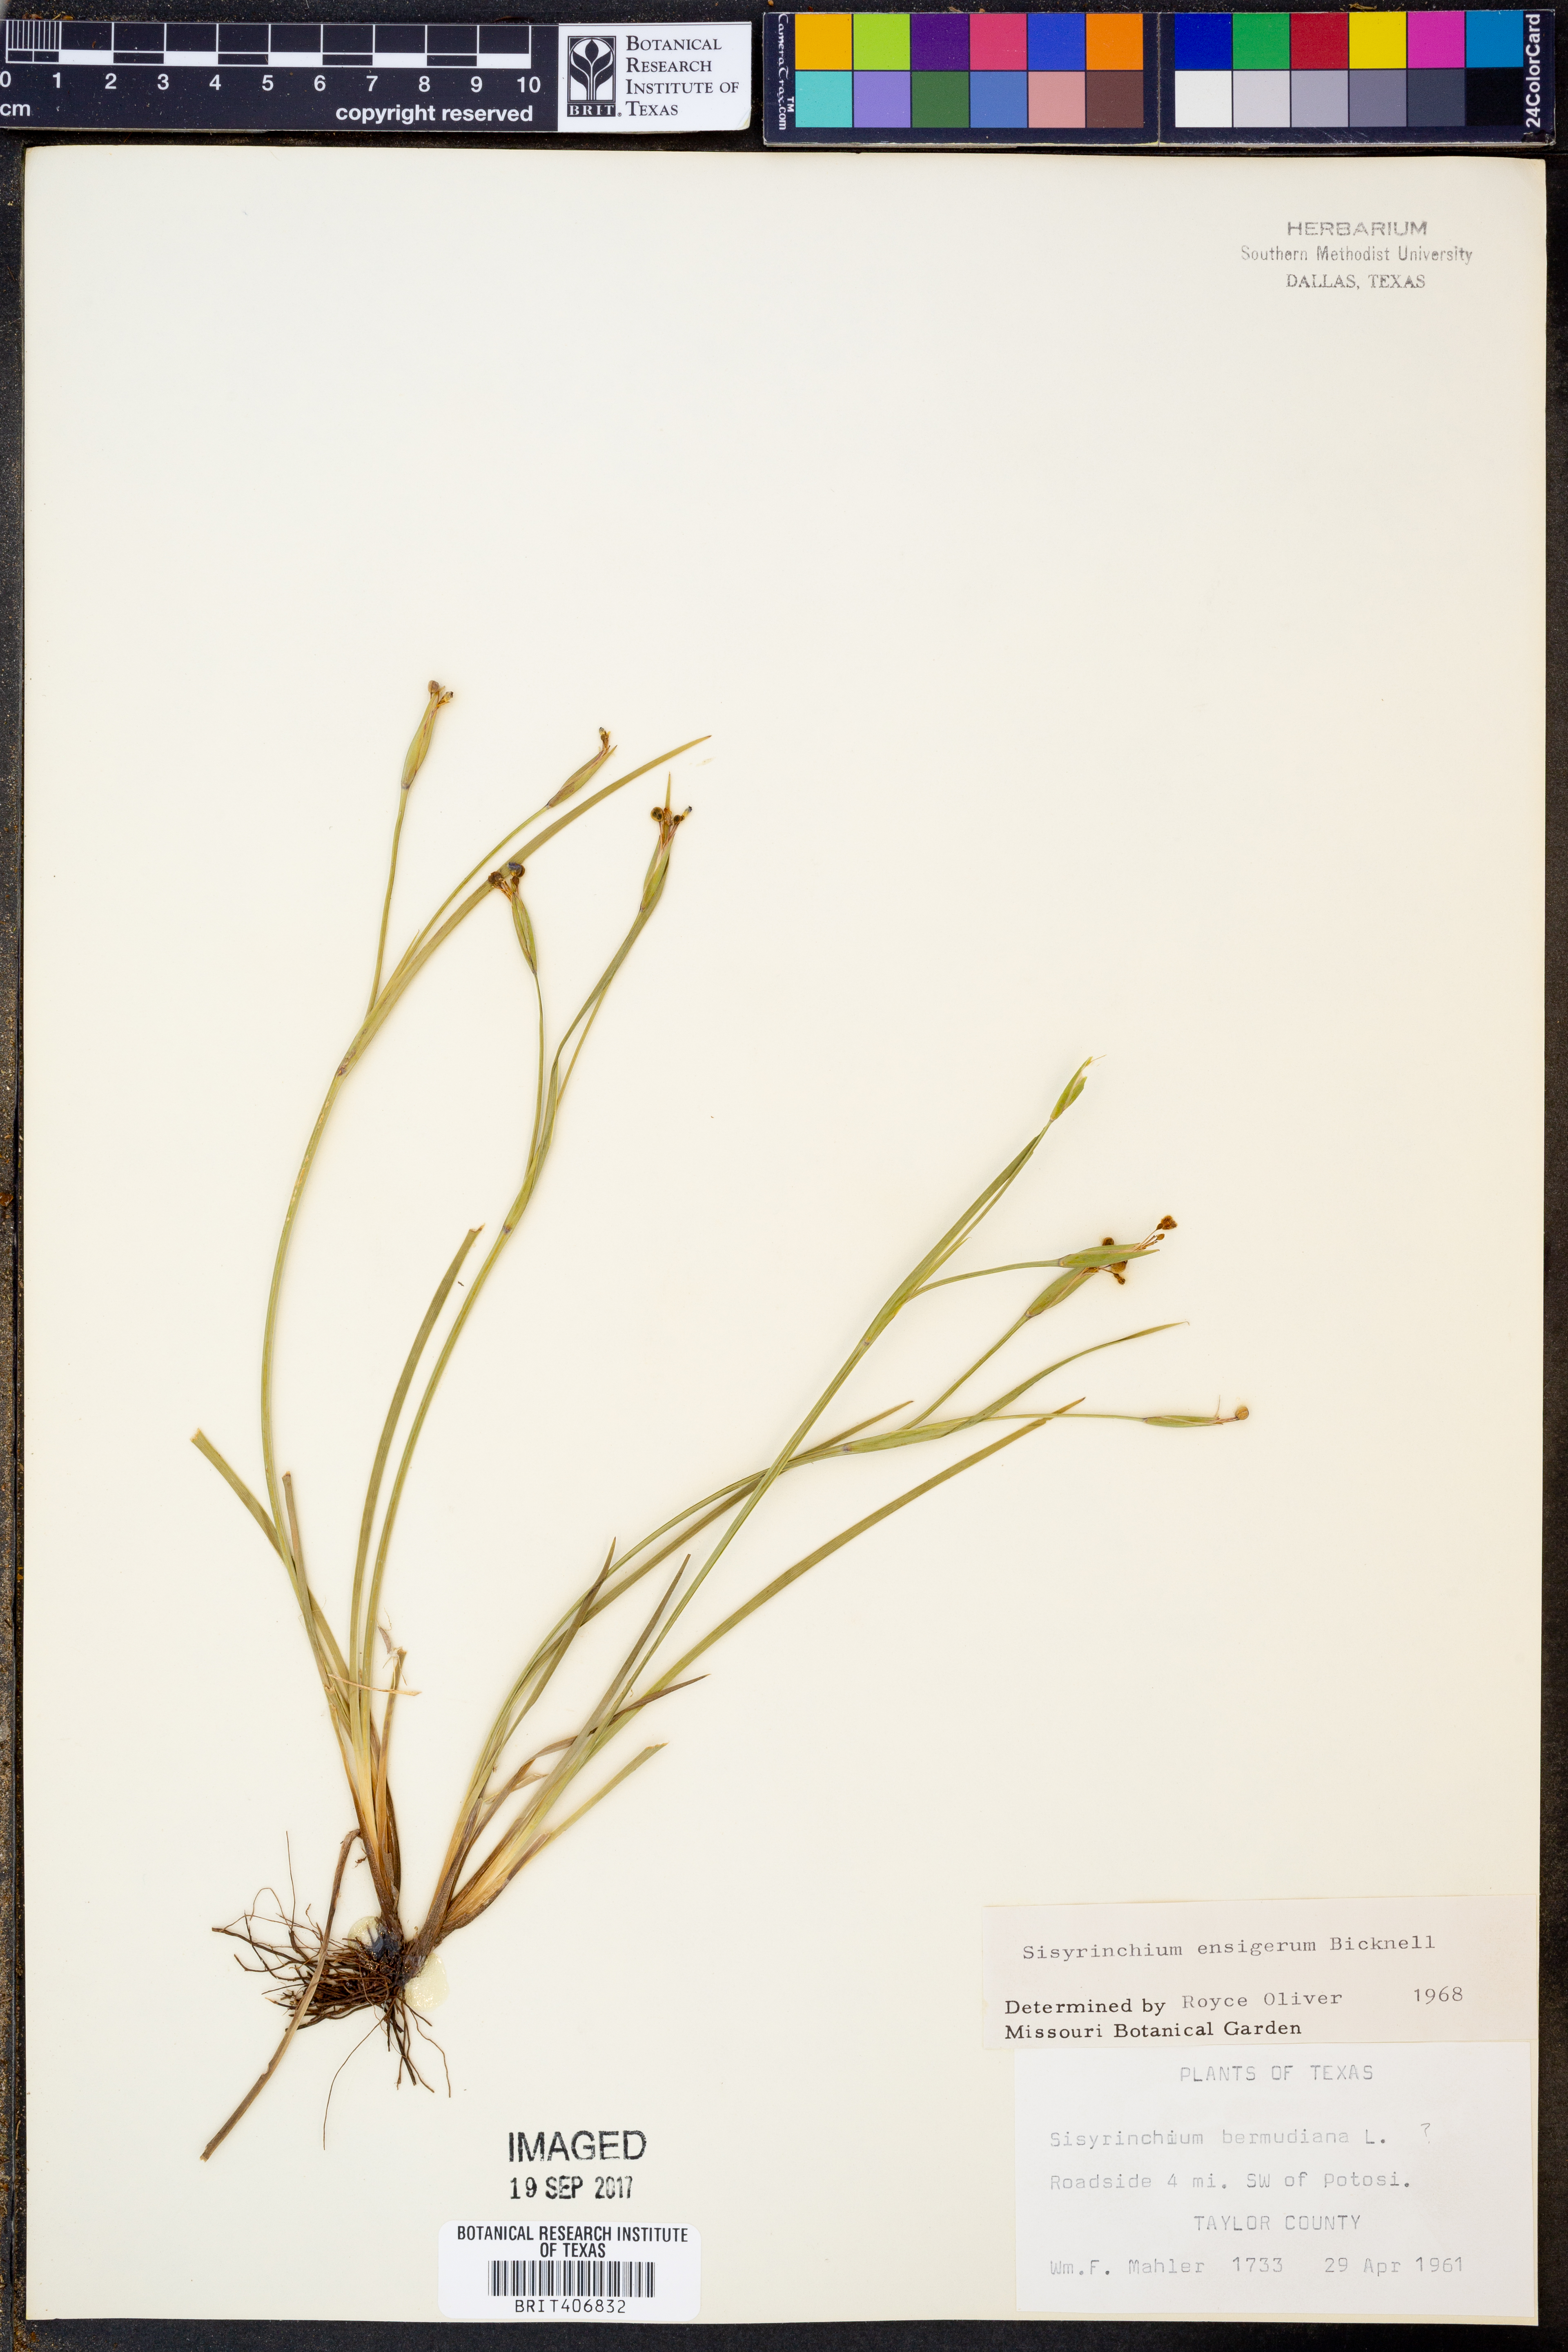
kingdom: Plantae
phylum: Tracheophyta
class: Liliopsida
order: Asparagales
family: Iridaceae
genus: Sisyrinchium
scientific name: Sisyrinchium ensigerum
